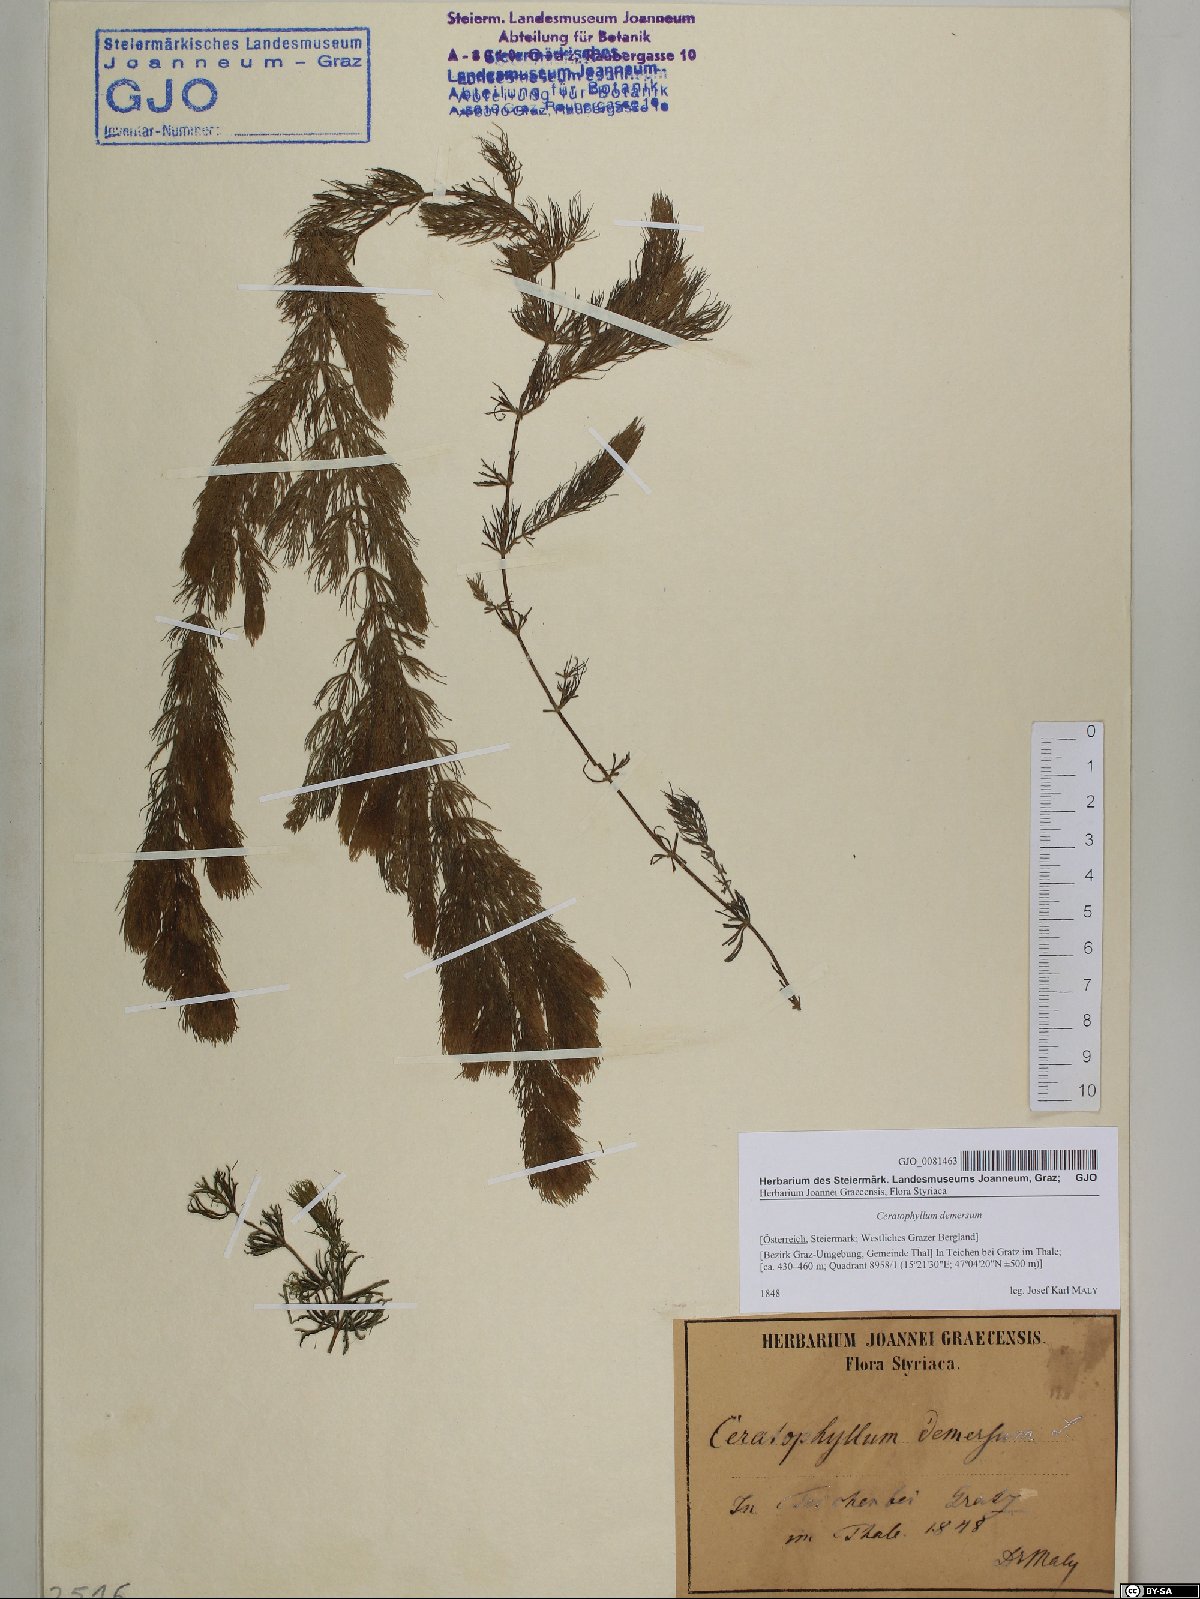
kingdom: Plantae
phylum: Tracheophyta
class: Magnoliopsida
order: Ceratophyllales
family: Ceratophyllaceae
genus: Ceratophyllum
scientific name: Ceratophyllum demersum
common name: Rigid hornwort
